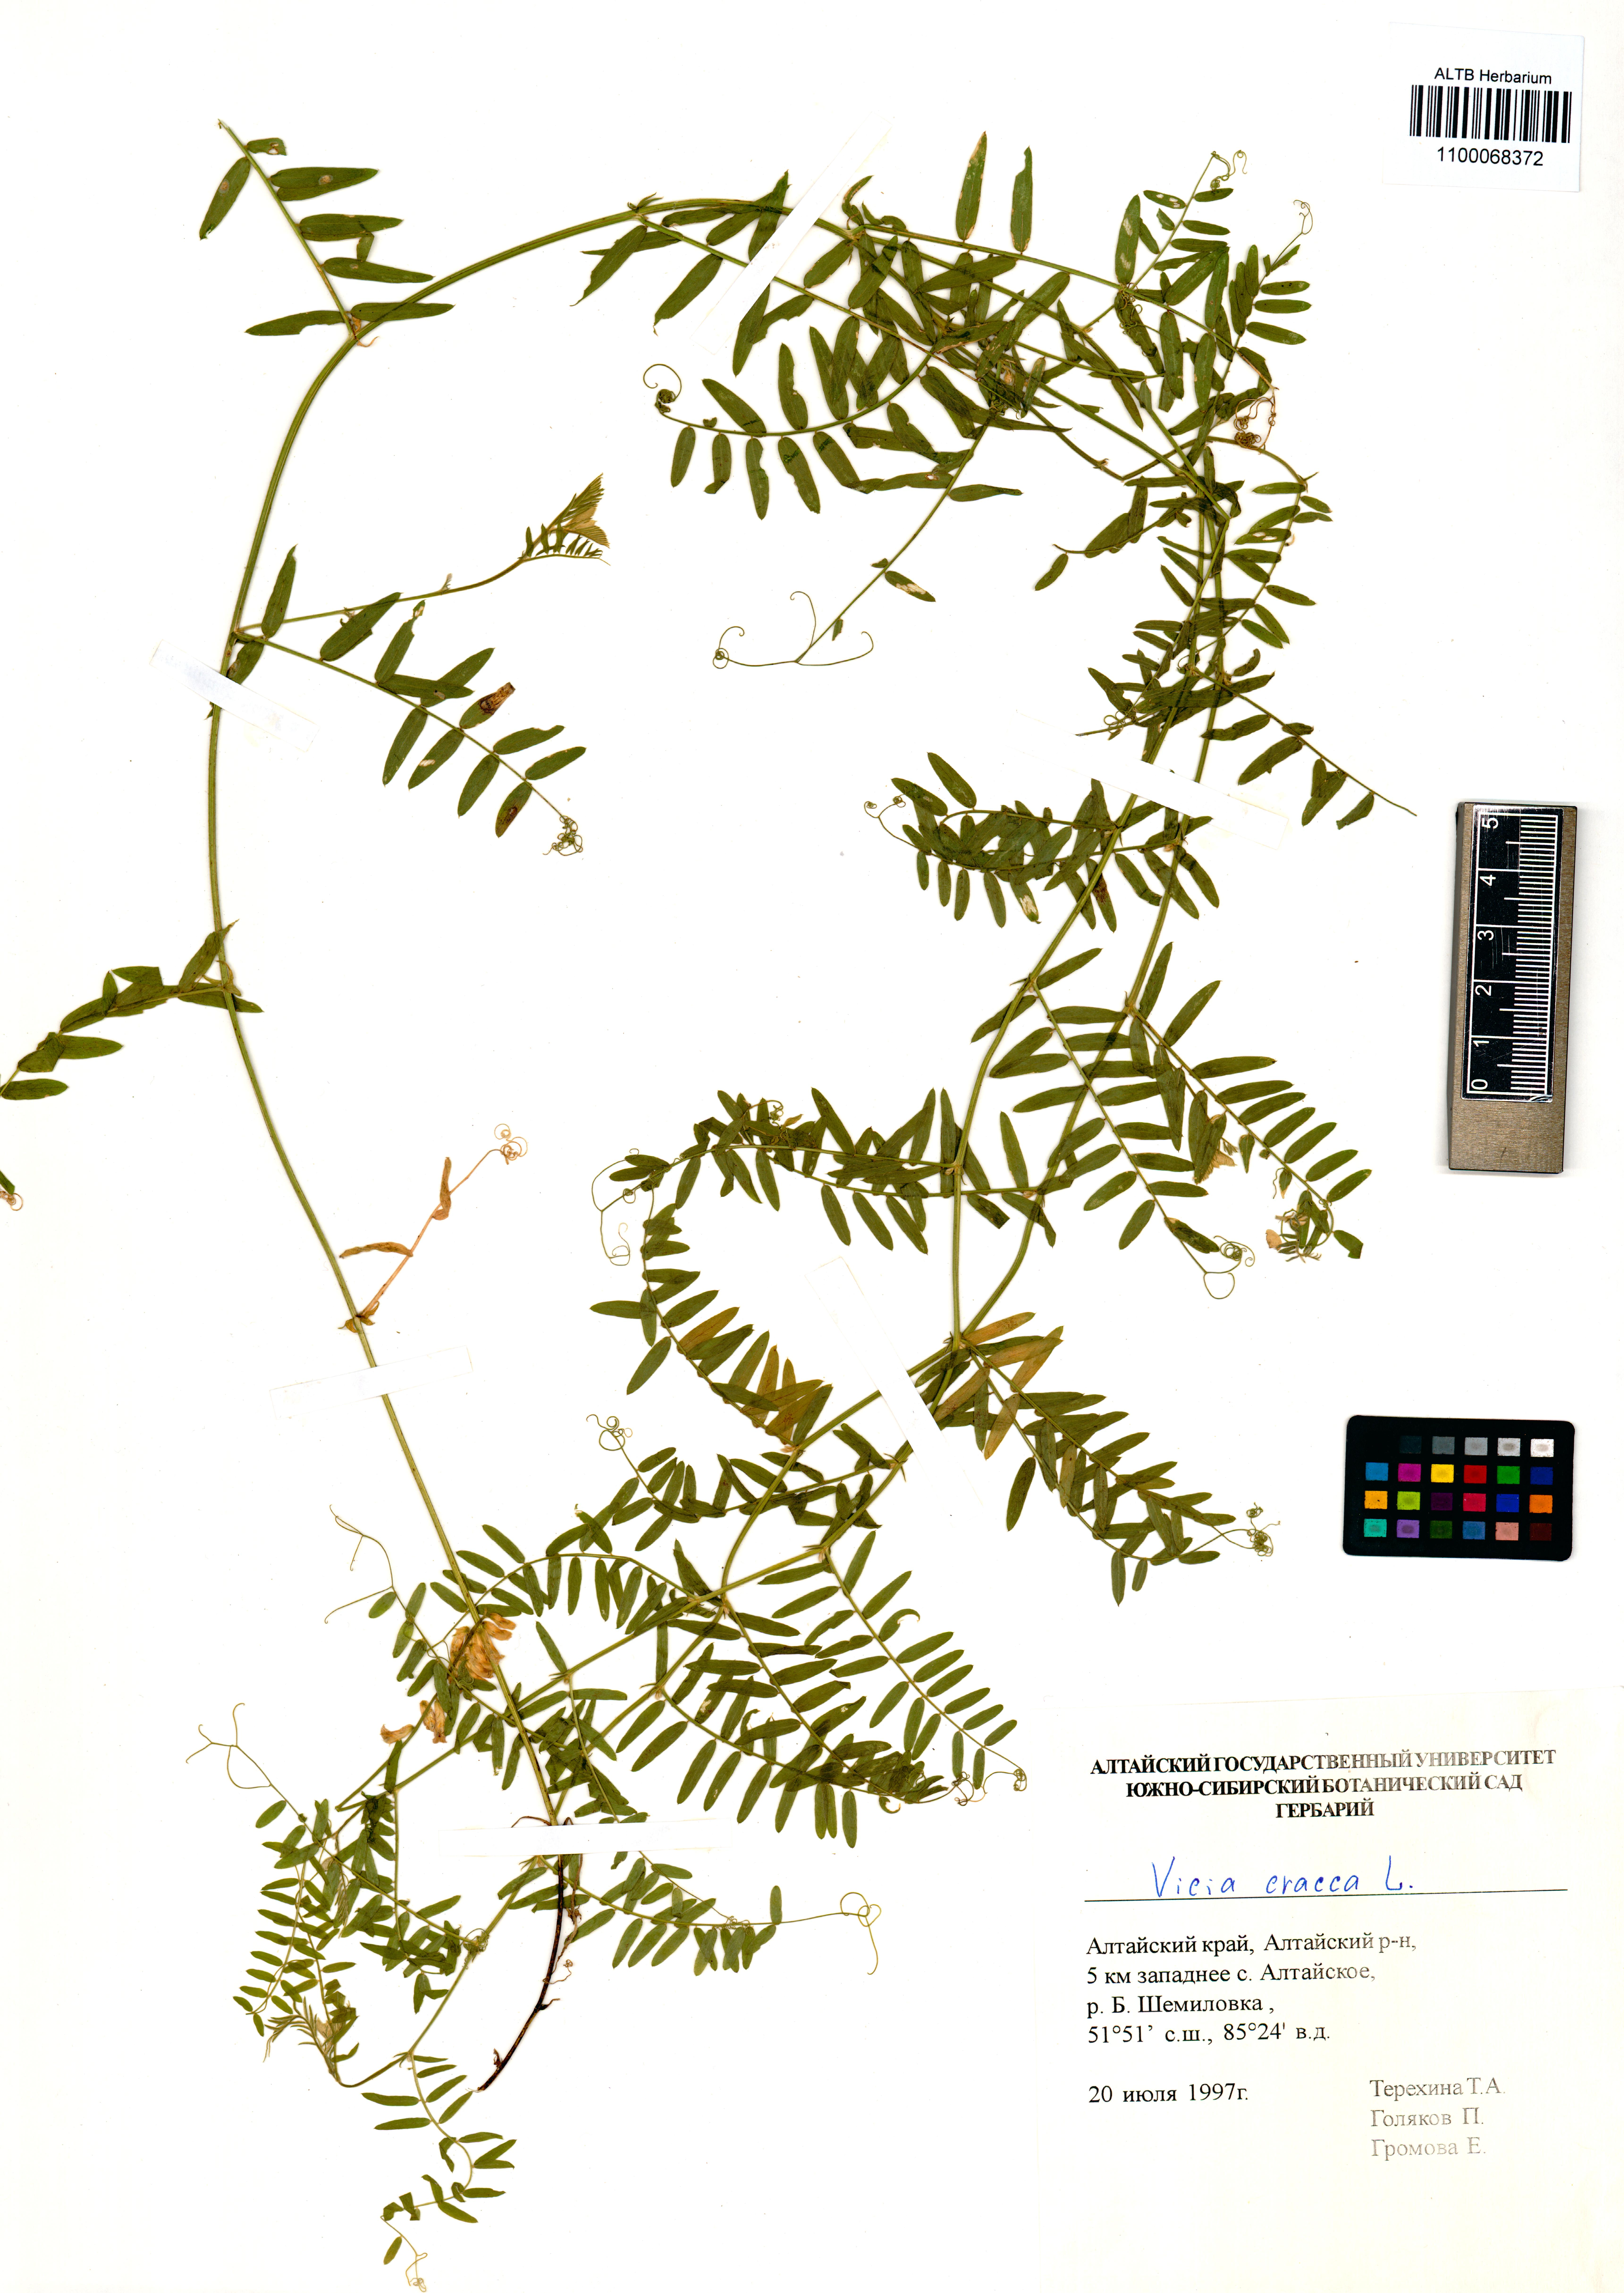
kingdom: Plantae
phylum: Tracheophyta
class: Magnoliopsida
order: Fabales
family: Fabaceae
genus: Vicia
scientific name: Vicia cracca
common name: Bird vetch
